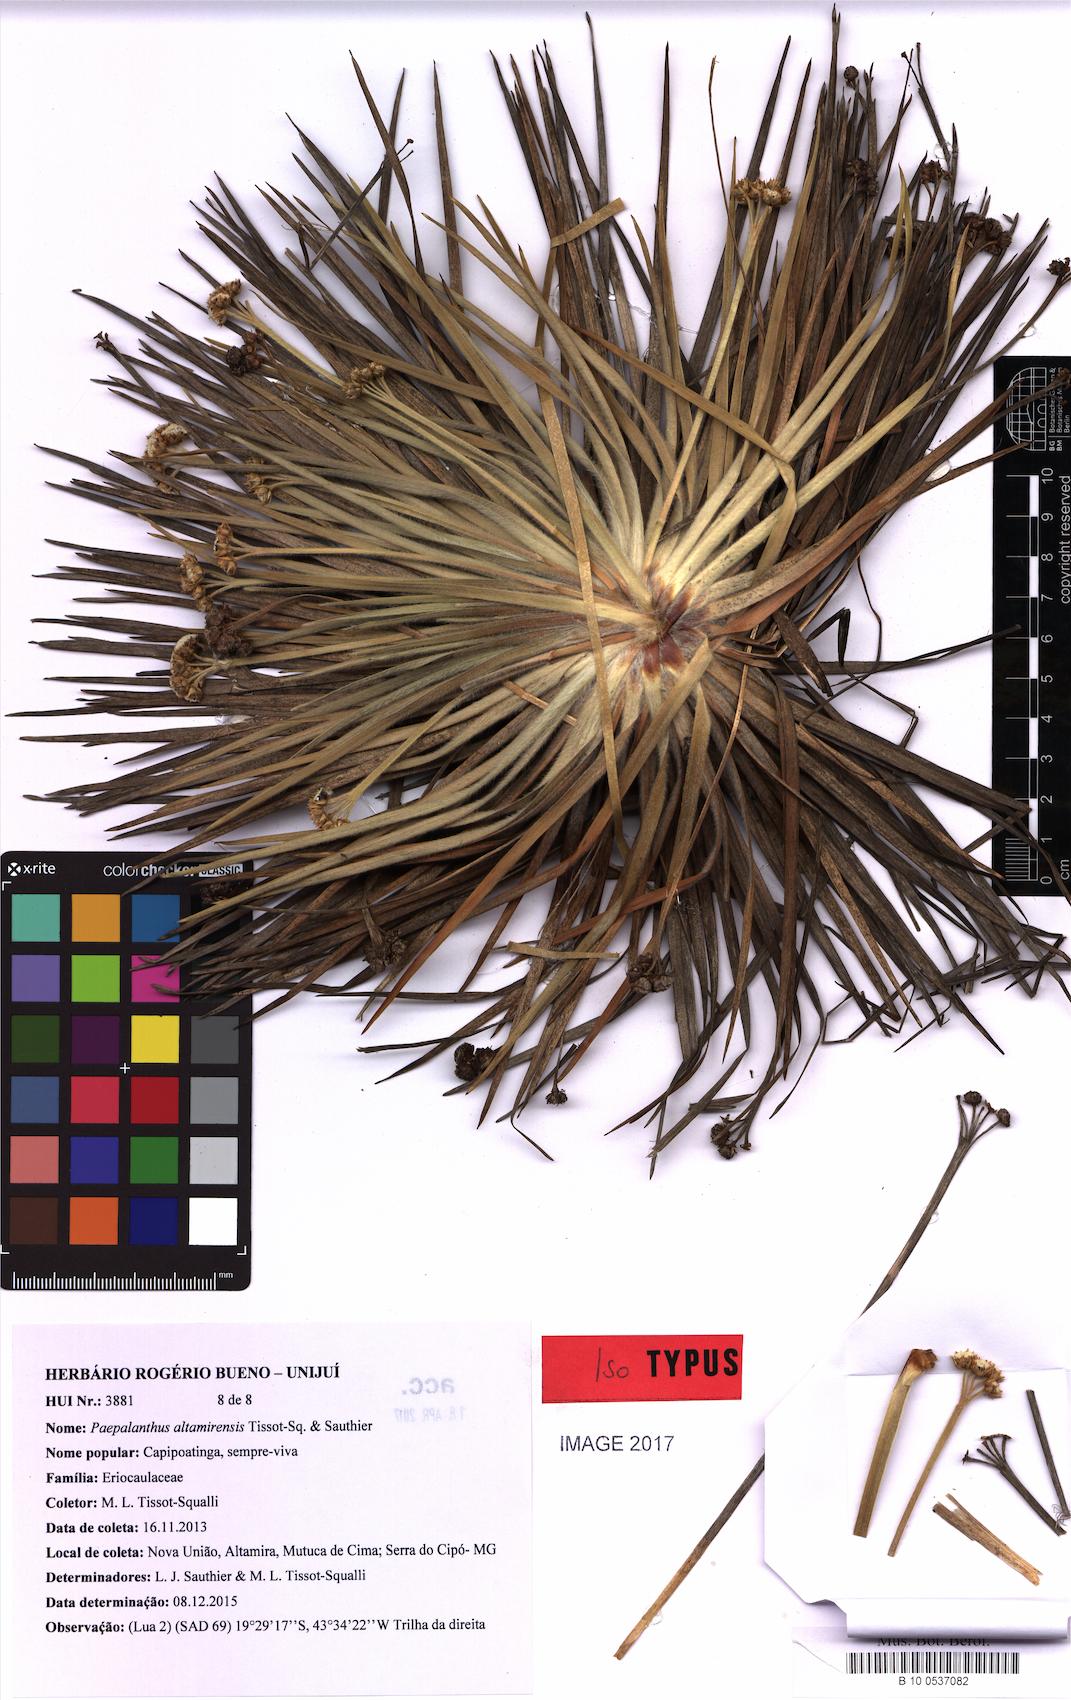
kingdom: Plantae
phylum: Tracheophyta
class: Liliopsida
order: Poales
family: Eriocaulaceae
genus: Paepalanthus
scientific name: Paepalanthus altamirensis
